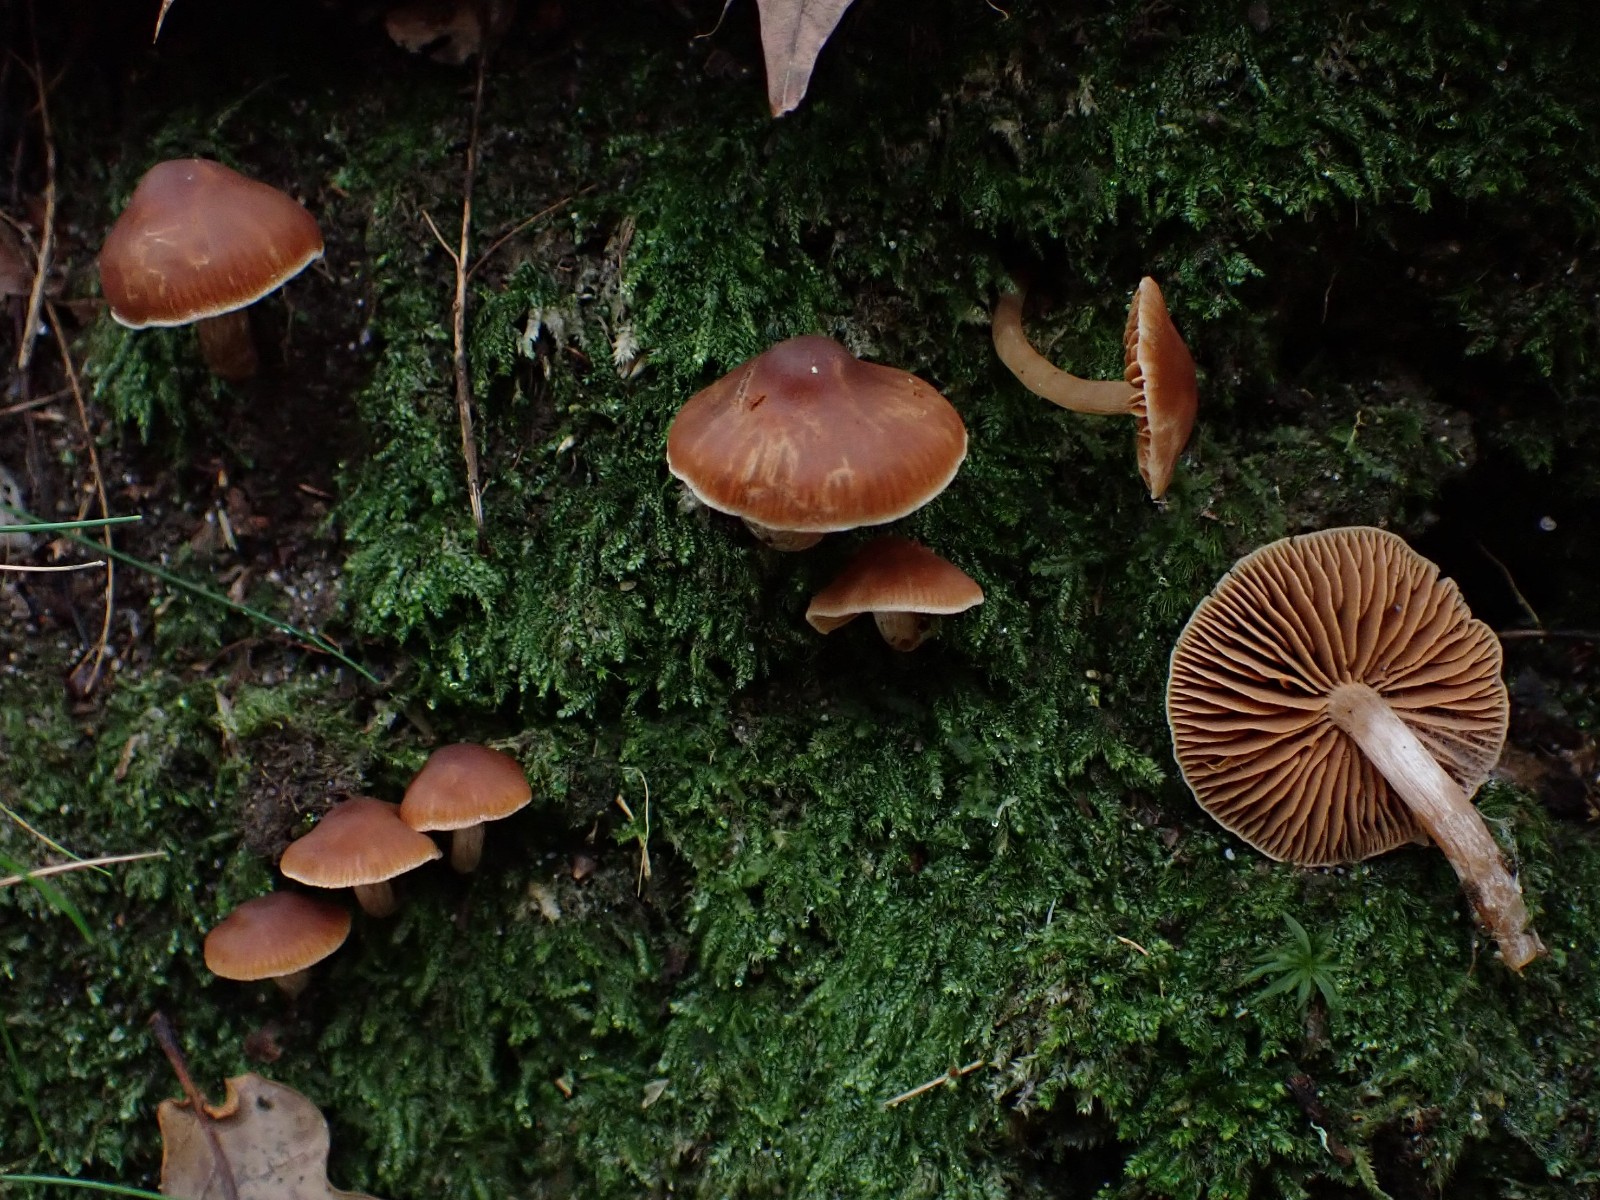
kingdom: Fungi
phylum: Basidiomycota
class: Agaricomycetes
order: Agaricales
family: Cortinariaceae
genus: Cortinarius
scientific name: Cortinarius
